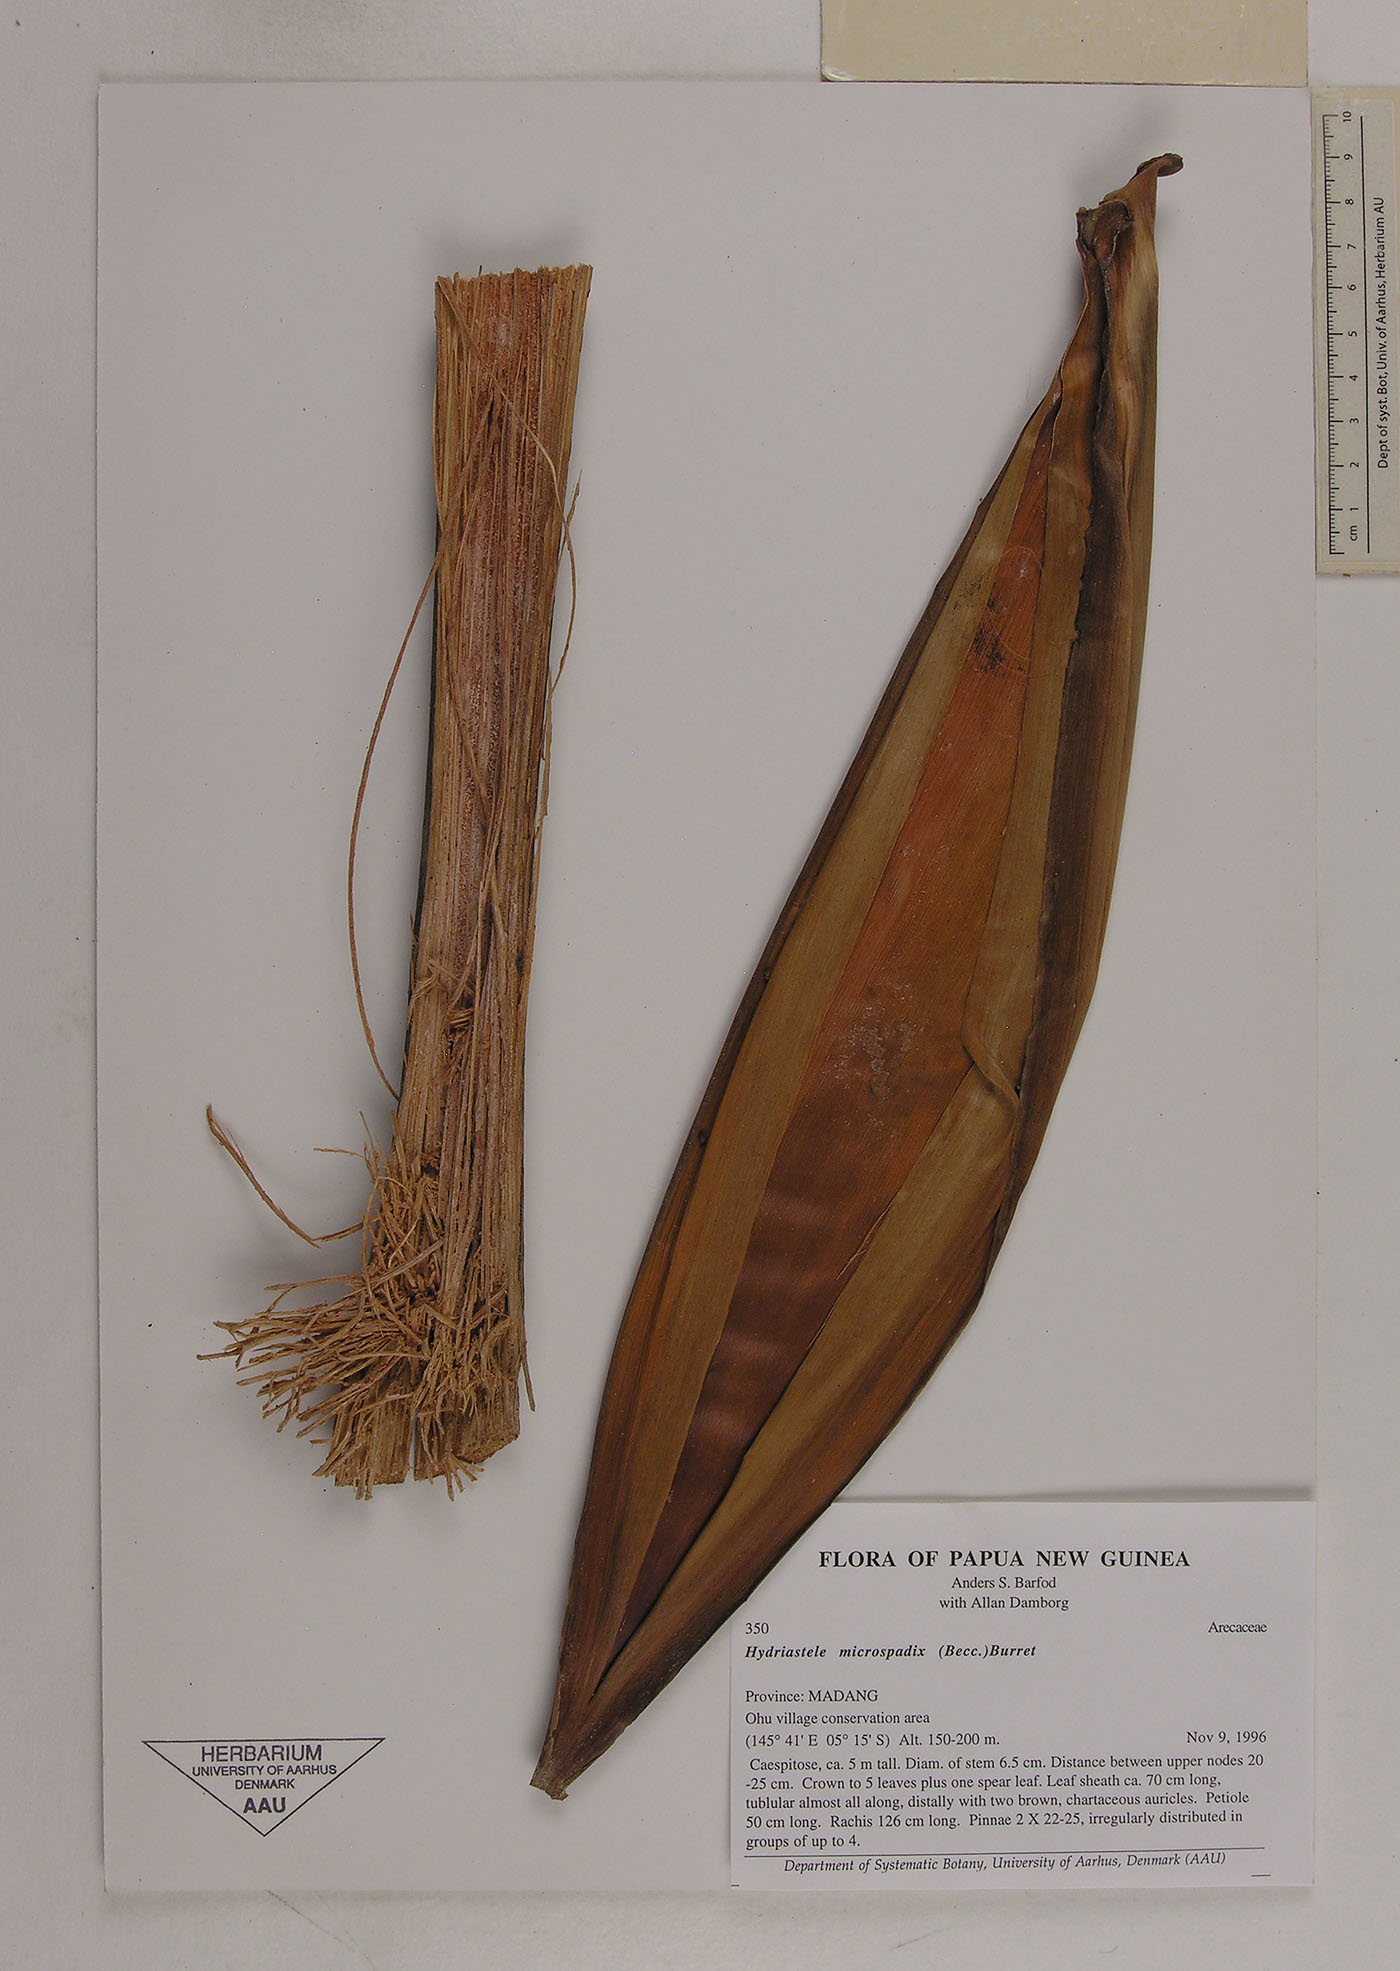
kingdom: Plantae
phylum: Tracheophyta
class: Liliopsida
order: Arecales
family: Arecaceae
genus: Hydriastele
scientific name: Hydriastele wendlandiana
